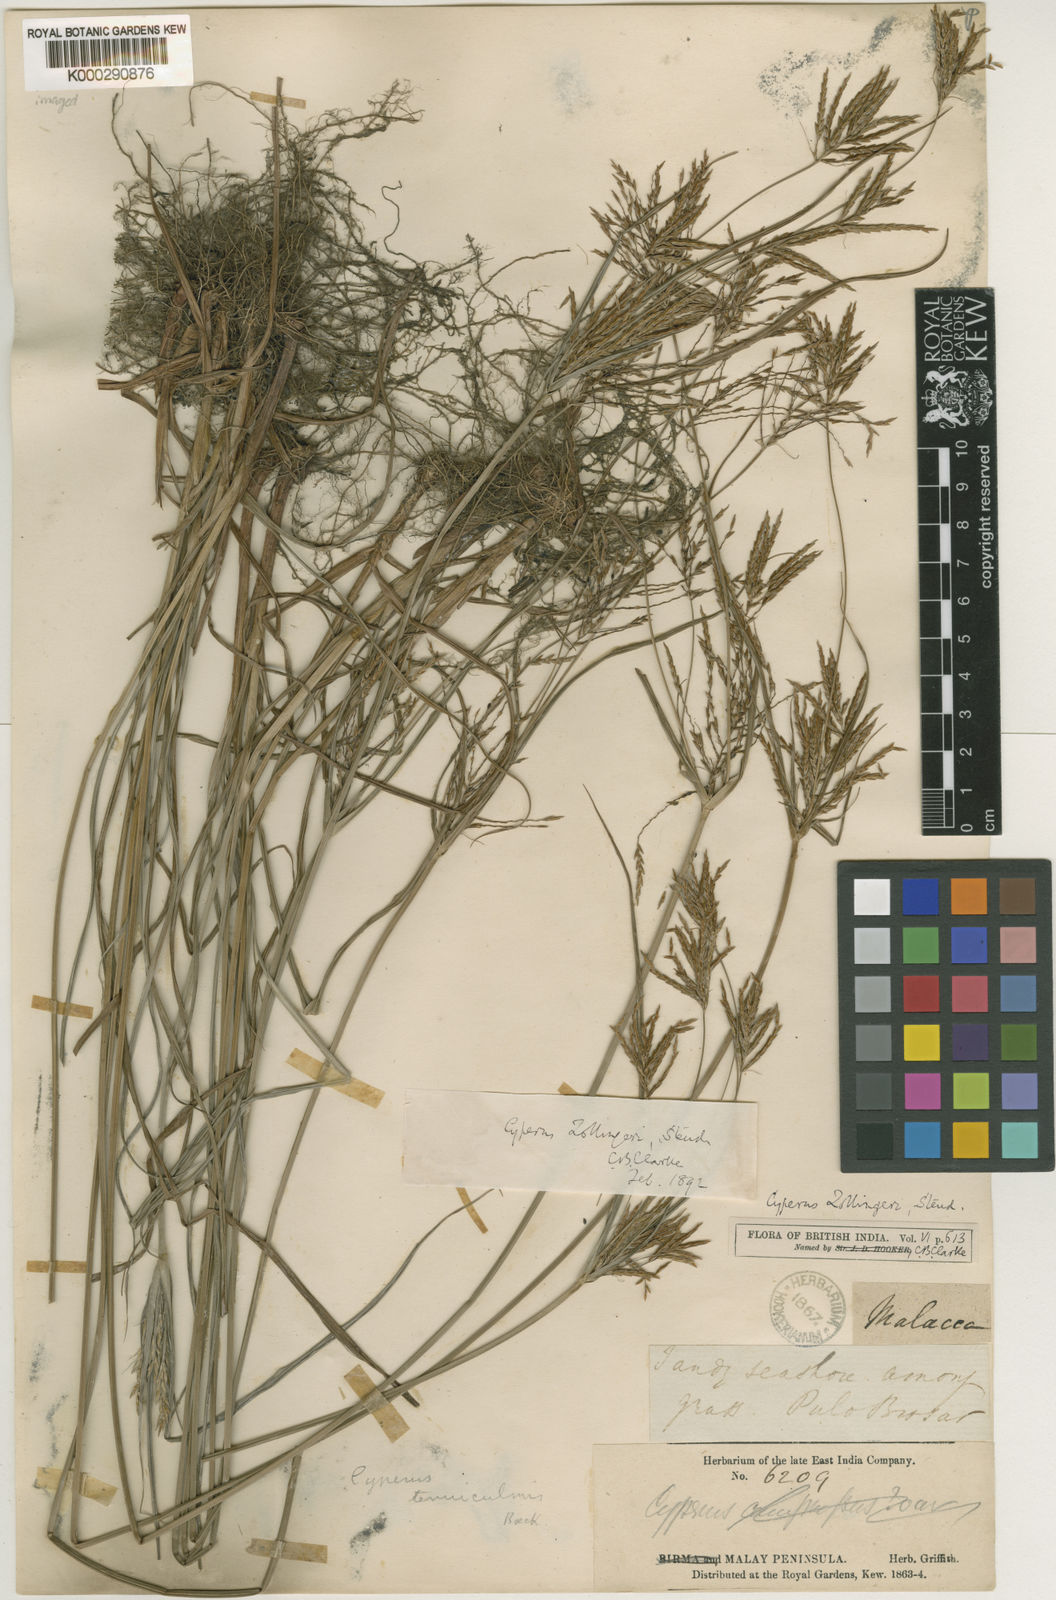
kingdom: Plantae
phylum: Tracheophyta
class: Liliopsida
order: Poales
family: Cyperaceae
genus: Cyperus
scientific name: Cyperus tenuiculmis
